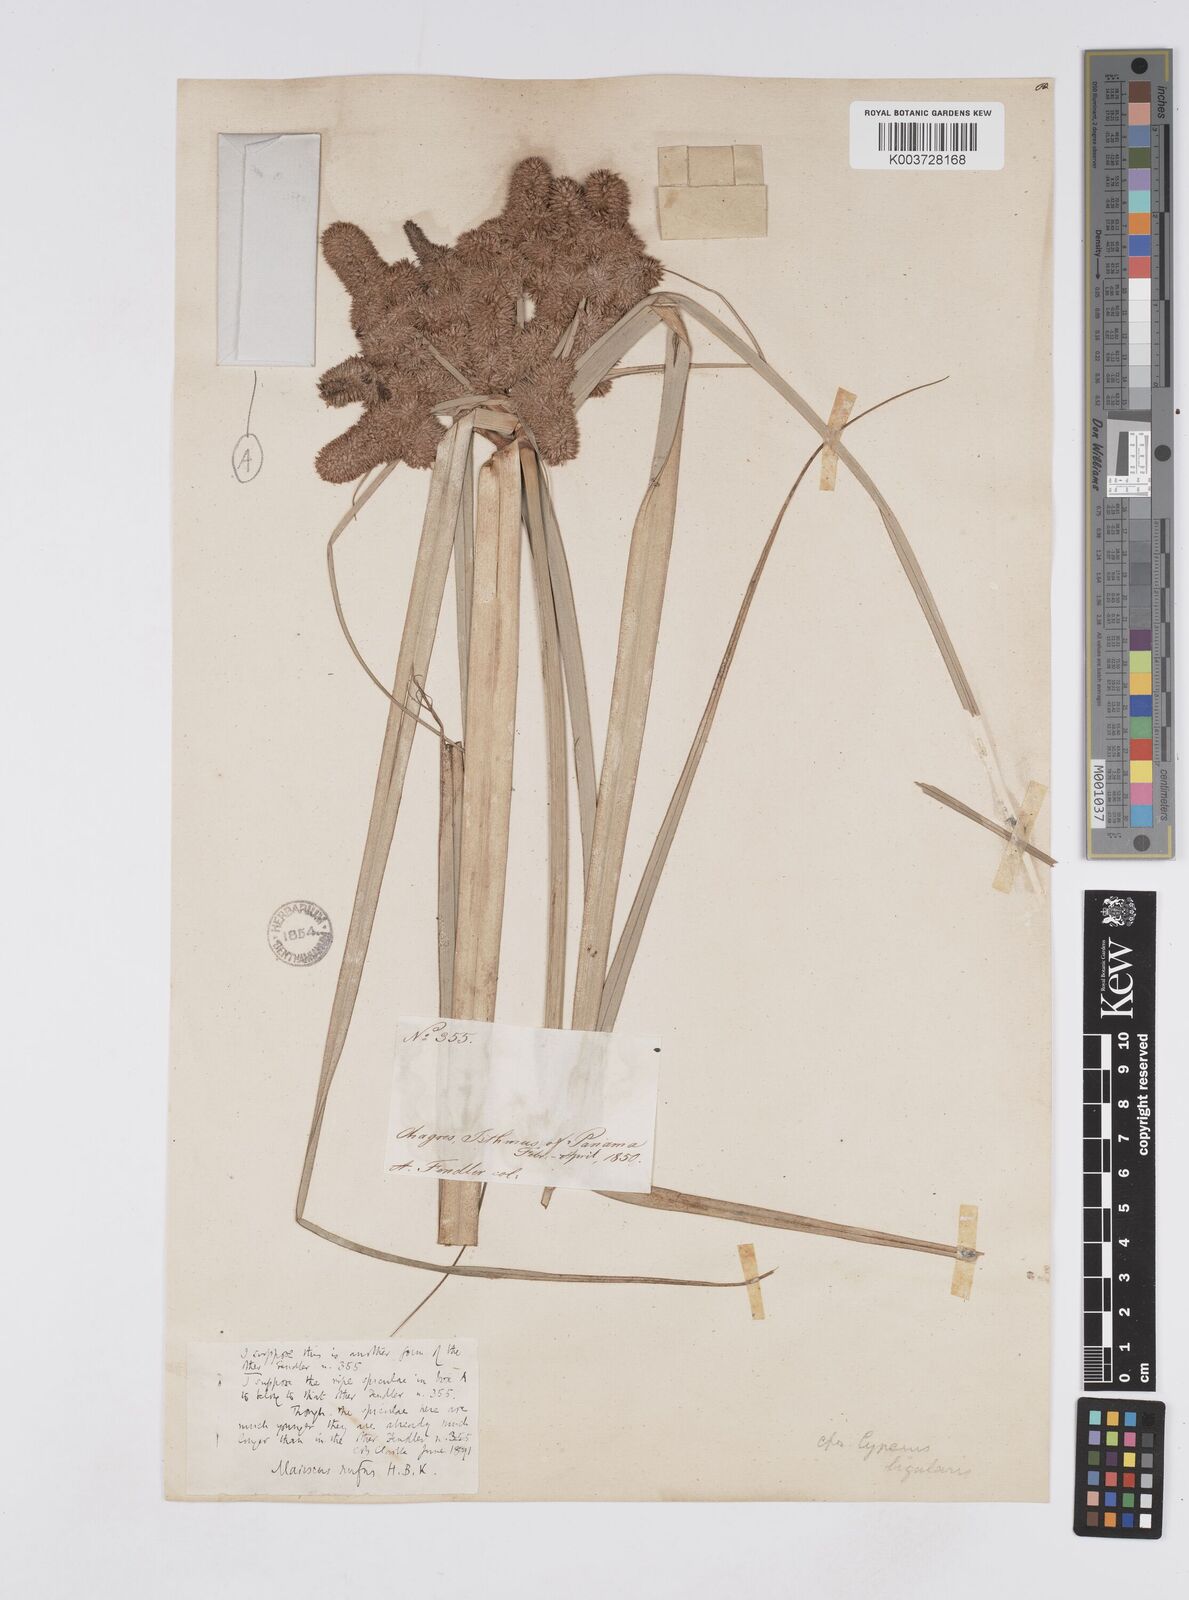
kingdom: Plantae
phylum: Tracheophyta
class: Liliopsida
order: Poales
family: Cyperaceae
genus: Cyperus
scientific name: Cyperus ligularis
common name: Swamp flat sedge
